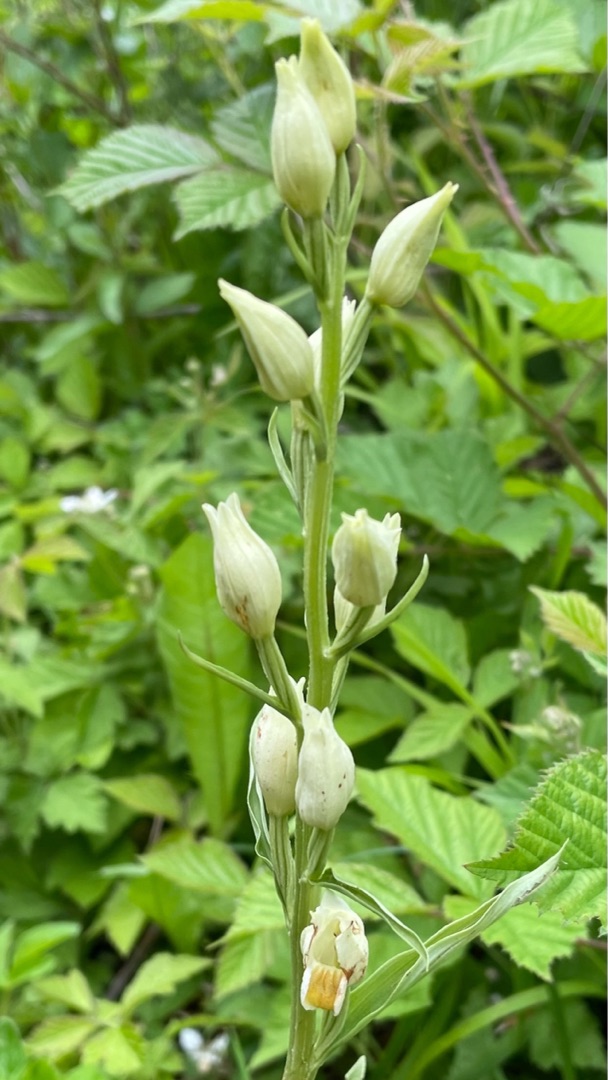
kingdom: Plantae
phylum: Tracheophyta
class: Liliopsida
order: Asparagales
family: Orchidaceae
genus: Cephalanthera
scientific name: Cephalanthera damasonium
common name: Hvidgul skovlilje
